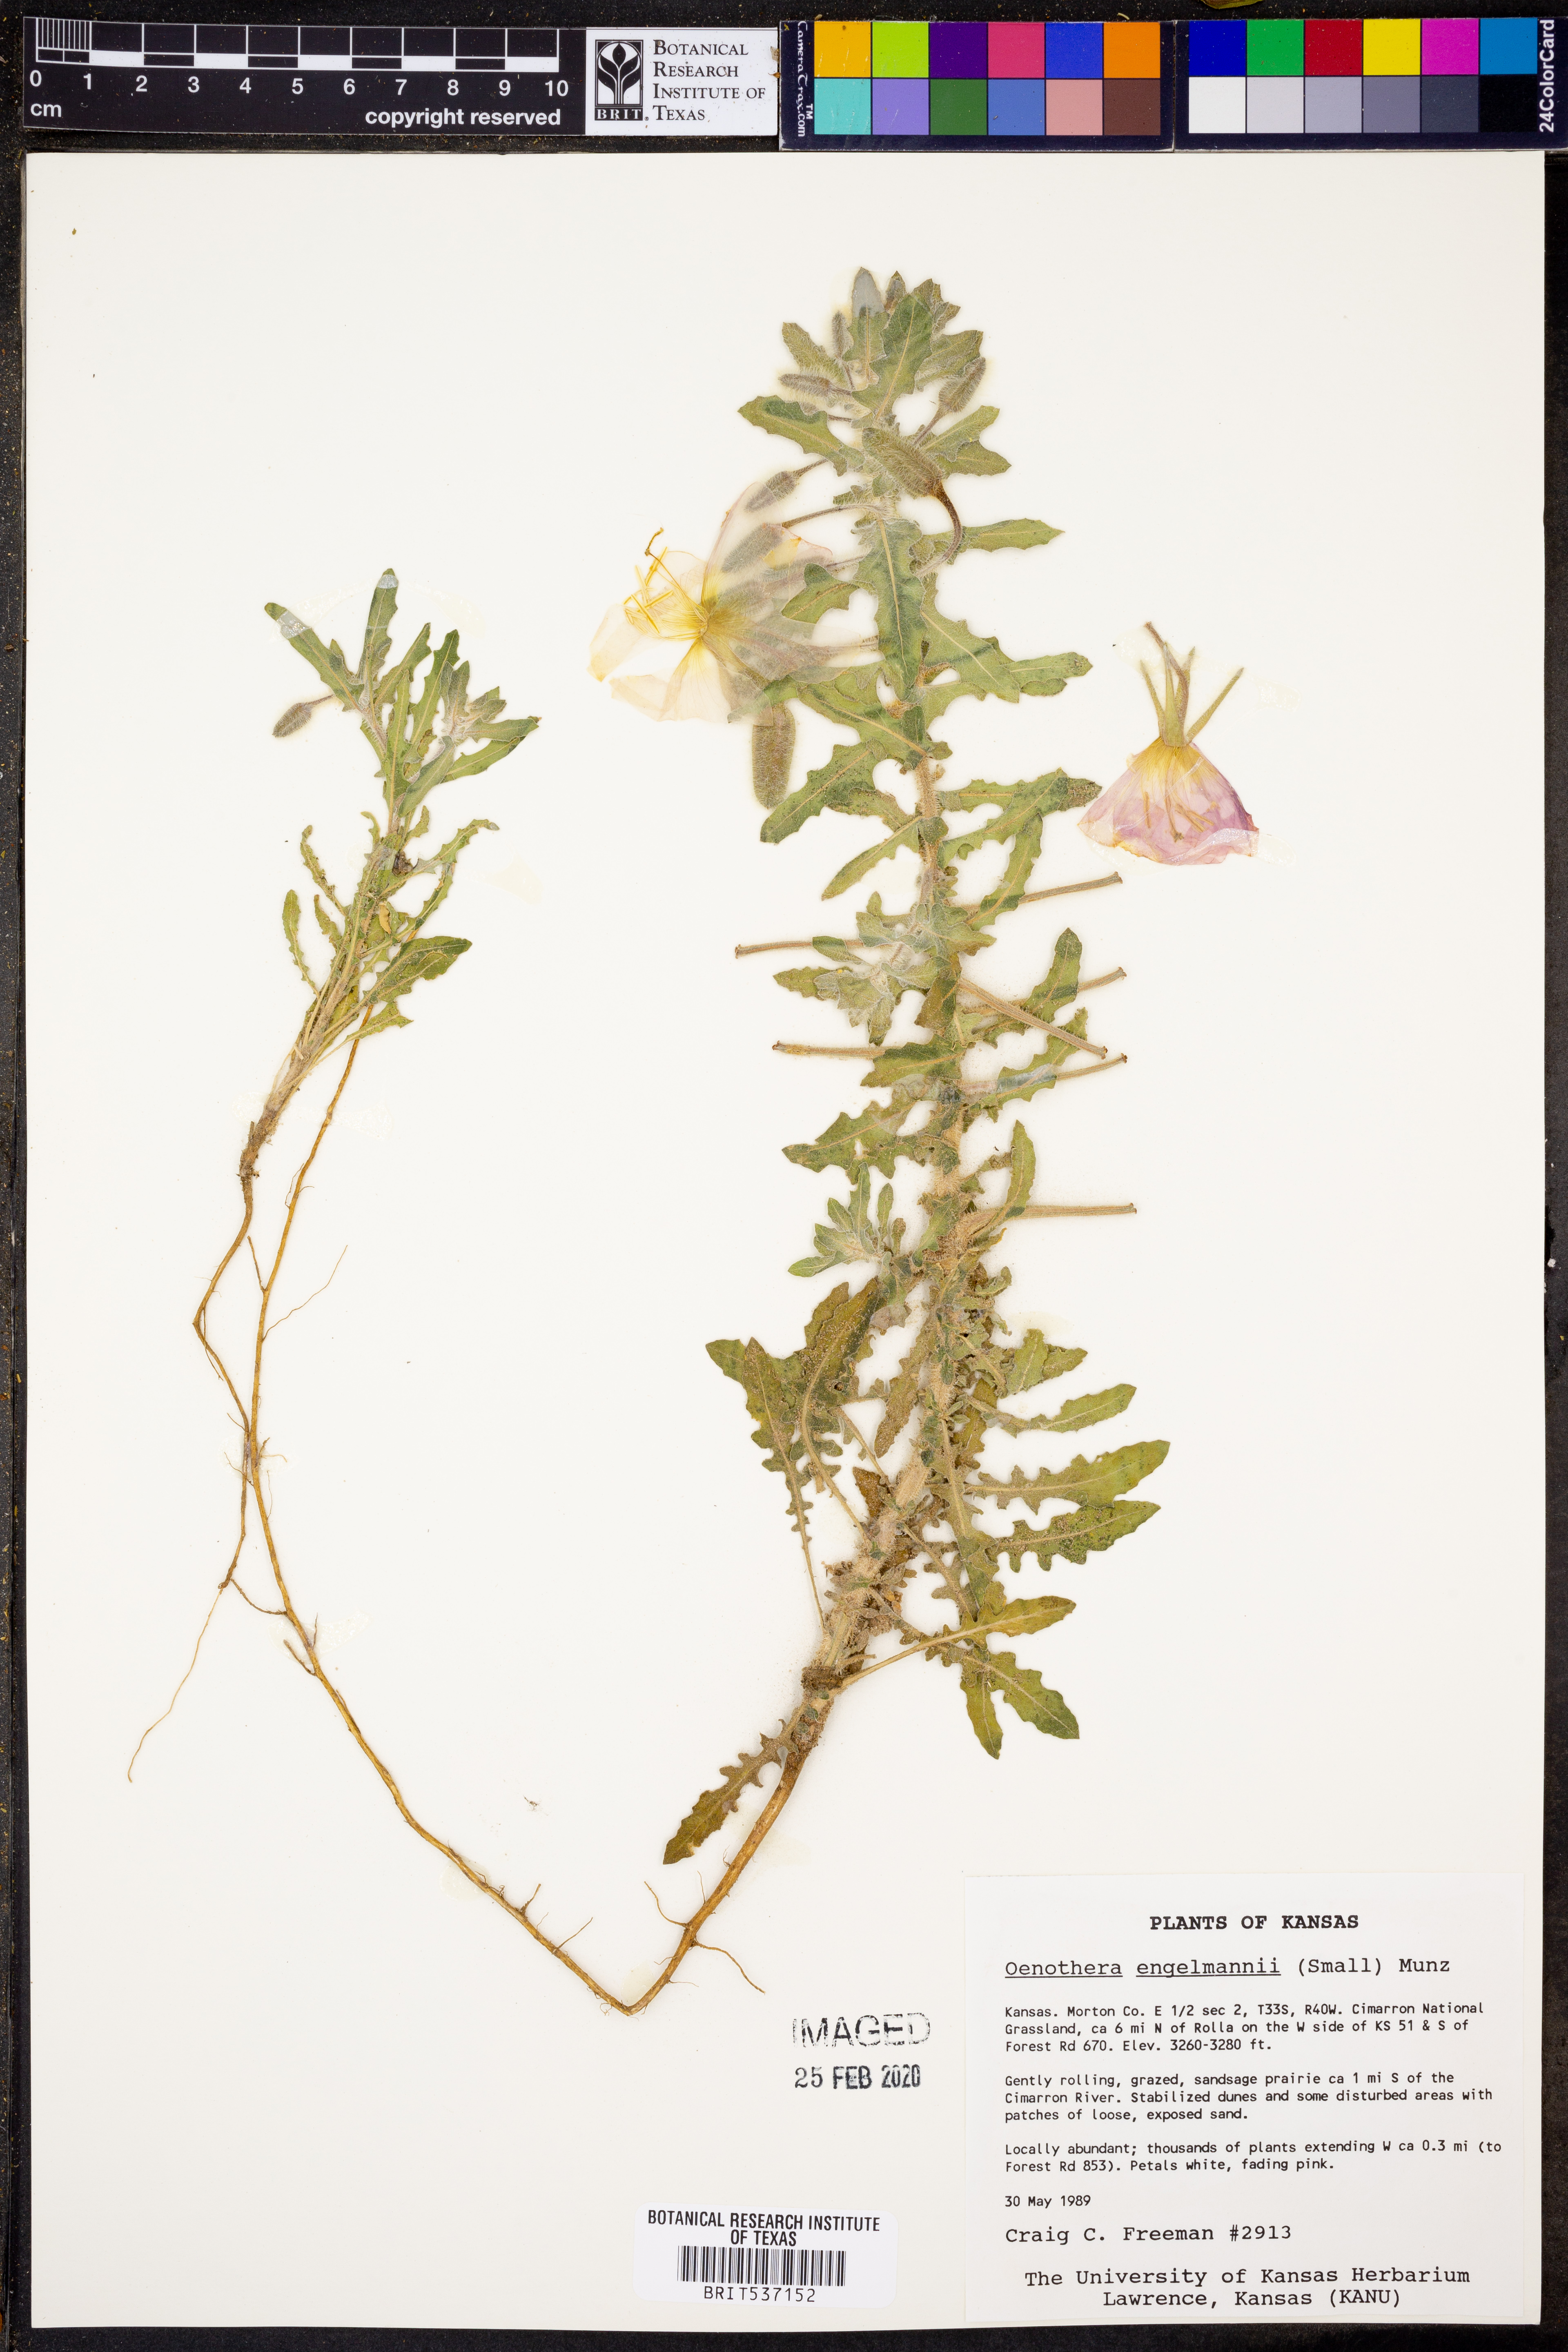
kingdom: Plantae
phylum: Tracheophyta
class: Magnoliopsida
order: Myrtales
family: Onagraceae
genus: Oenothera
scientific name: Oenothera engelmannii
